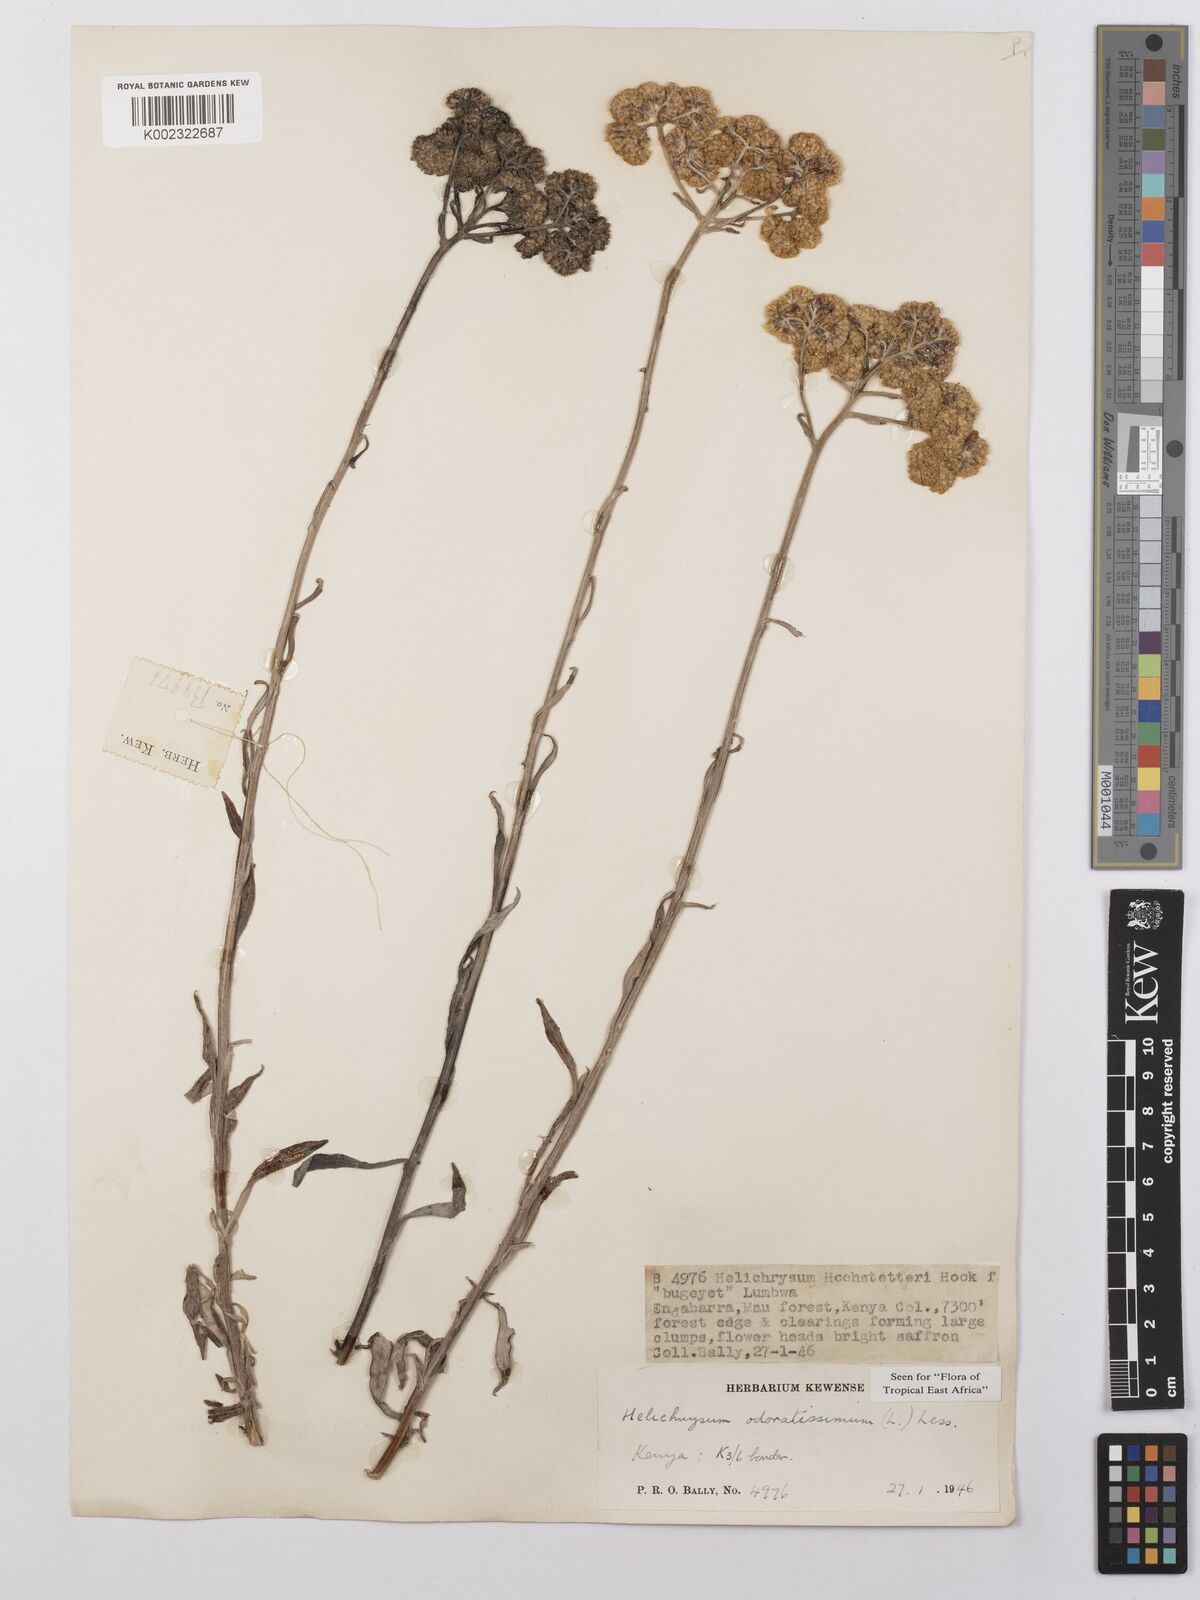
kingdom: Plantae
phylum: Tracheophyta
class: Magnoliopsida
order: Asterales
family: Asteraceae
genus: Helichrysum
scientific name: Helichrysum odoratissimum
